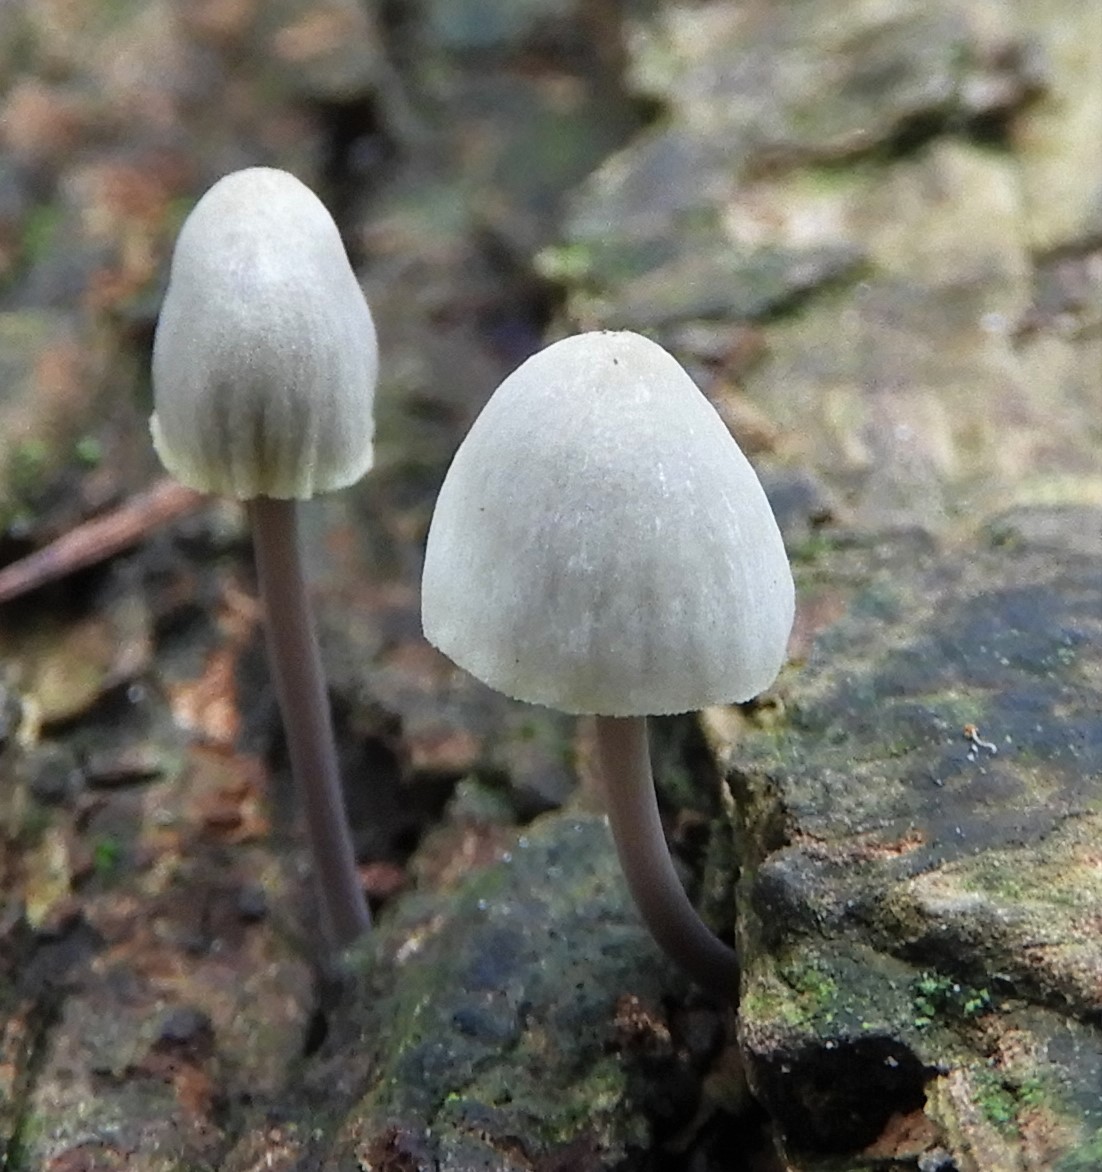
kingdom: Fungi
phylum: Basidiomycota
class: Agaricomycetes
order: Agaricales
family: Mycenaceae
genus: Mycena
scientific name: Mycena arcangeliana
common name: oliven-huesvamp
